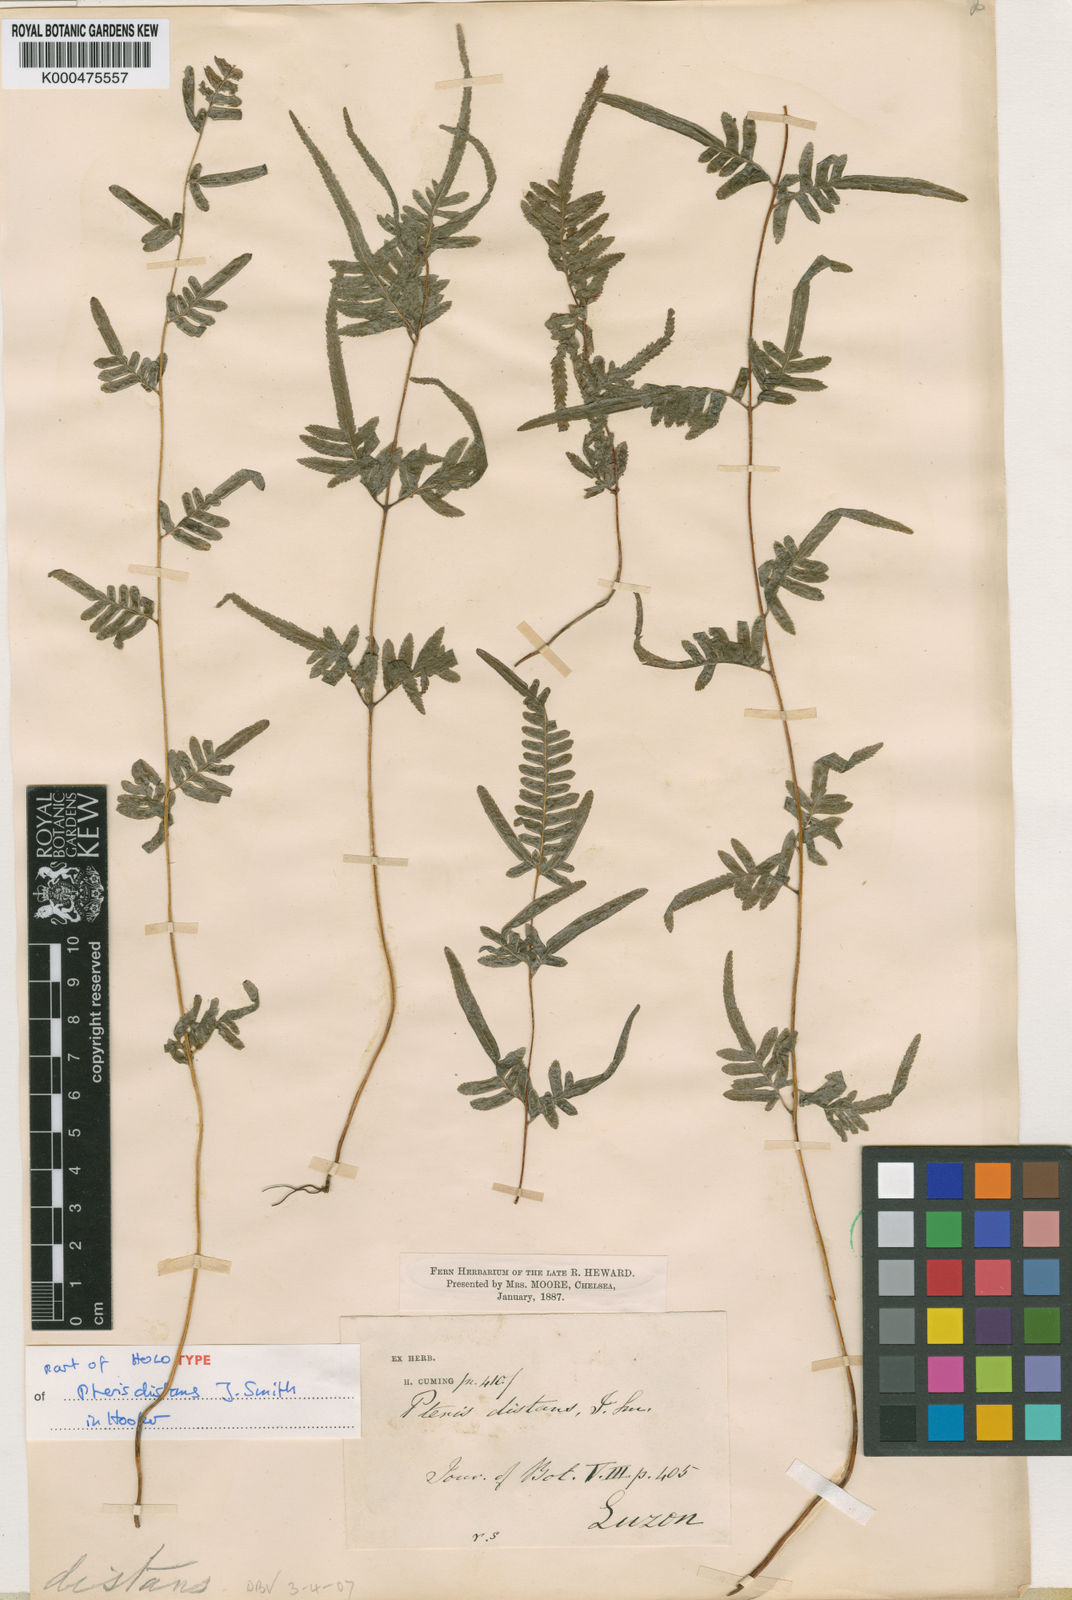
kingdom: Plantae
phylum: Tracheophyta
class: Polypodiopsida
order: Polypodiales
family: Pteridaceae
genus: Pteris
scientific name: Pteris distans
